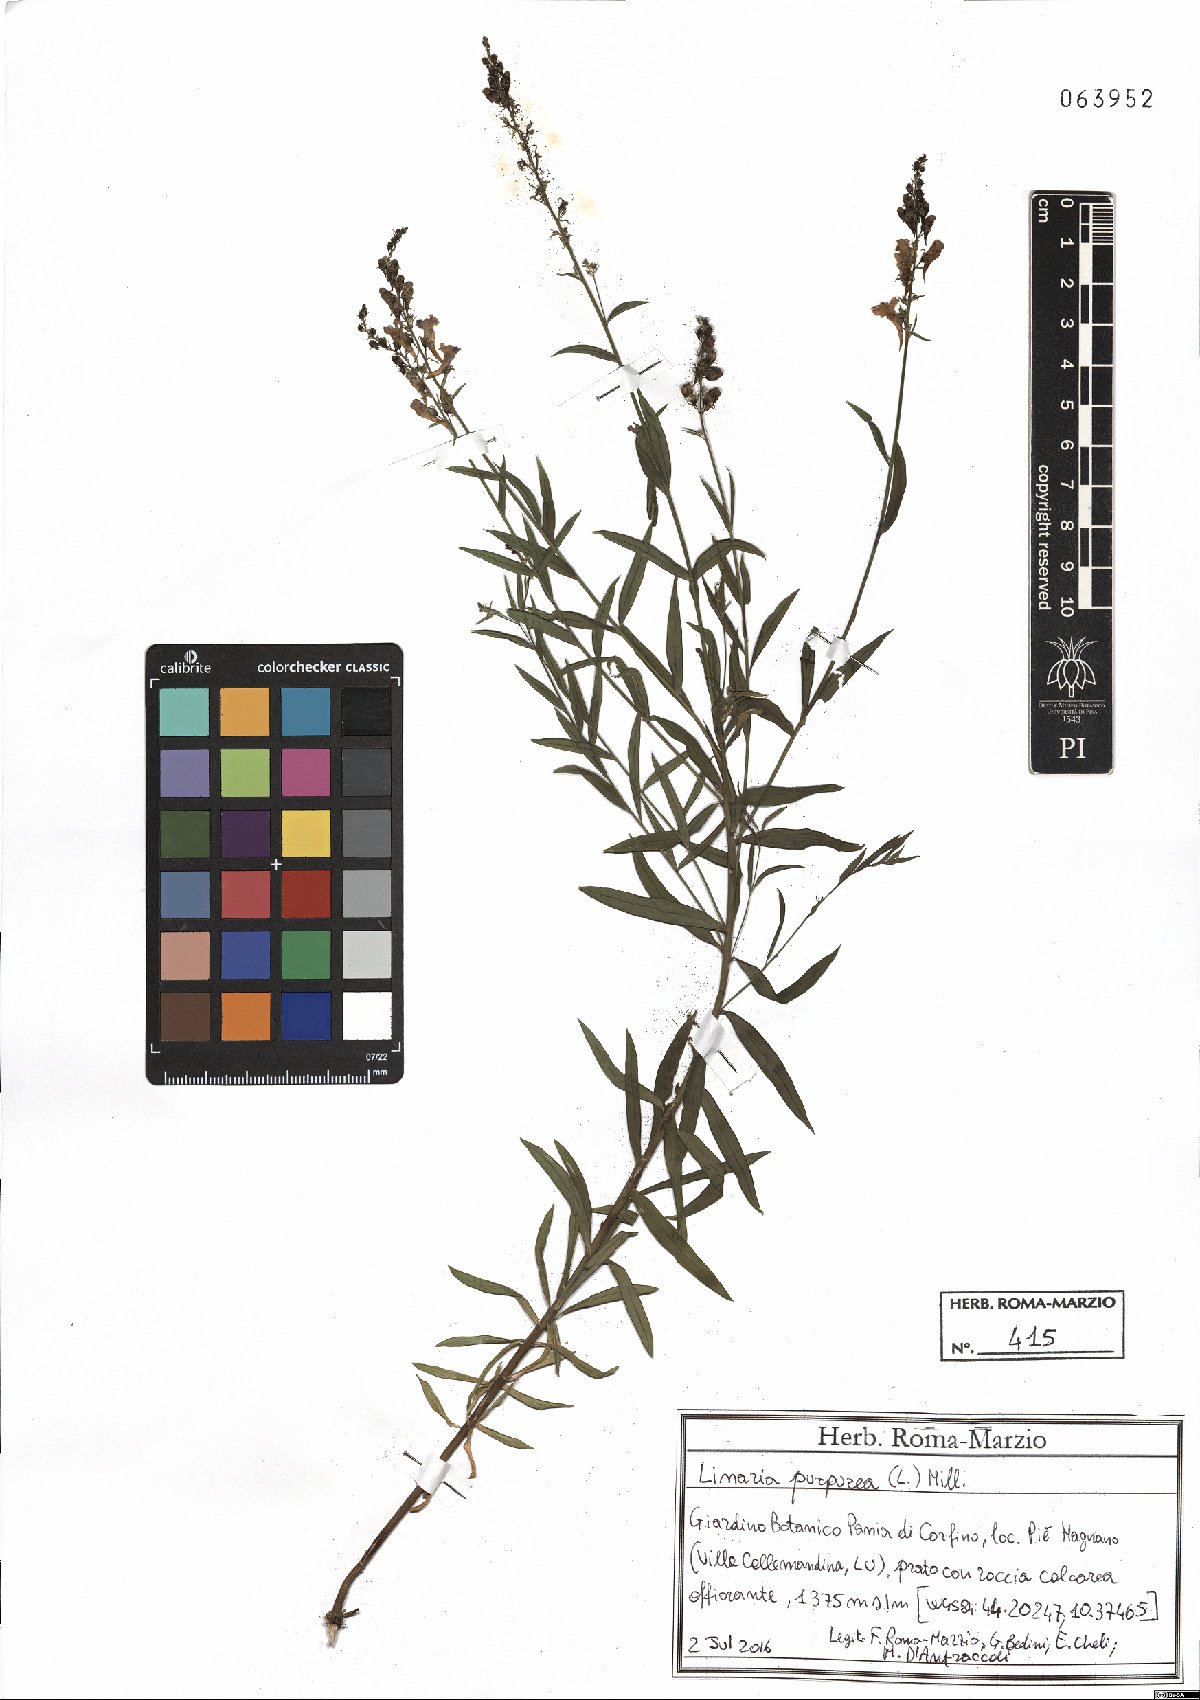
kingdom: Plantae
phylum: Tracheophyta
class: Magnoliopsida
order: Lamiales
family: Plantaginaceae
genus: Linaria
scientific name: Linaria purpurea
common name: Purple toadflax
